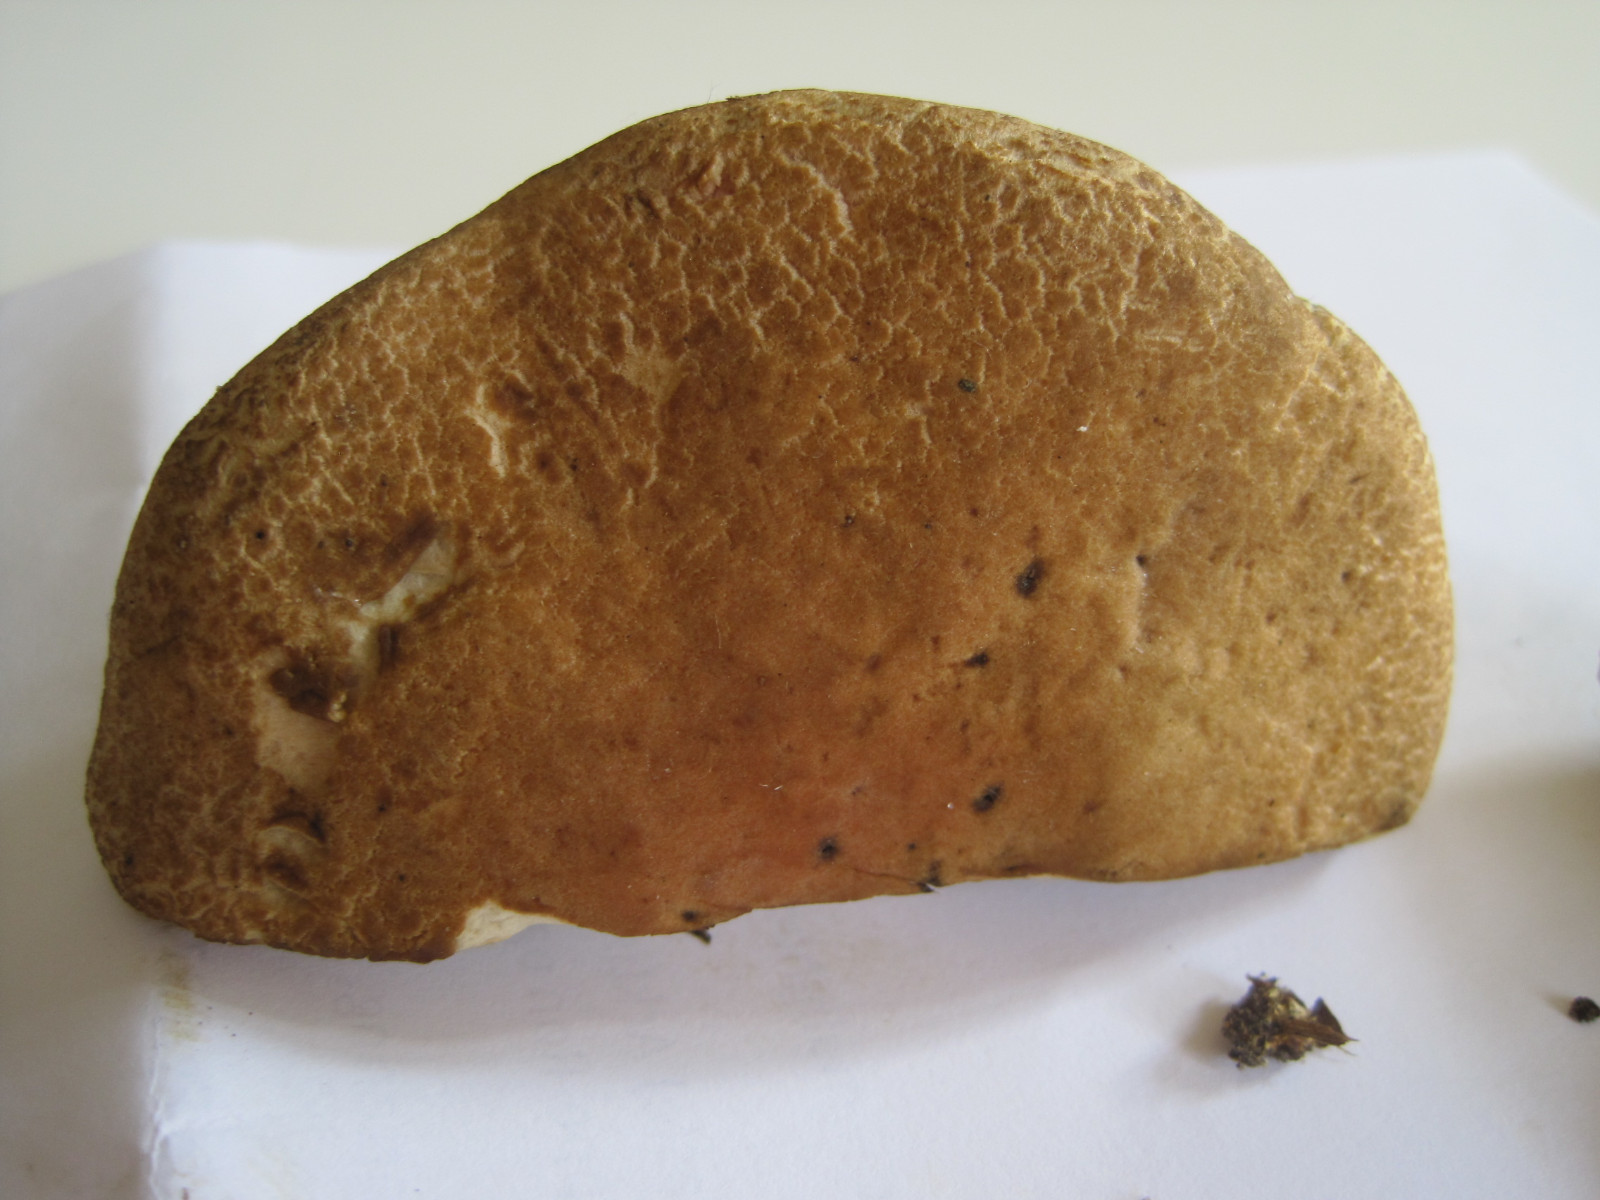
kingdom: Fungi
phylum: Basidiomycota
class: Agaricomycetes
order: Boletales
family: Boletaceae
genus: Xerocomellus
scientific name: Xerocomellus chrysenteron
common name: rødsprukken rørhat
